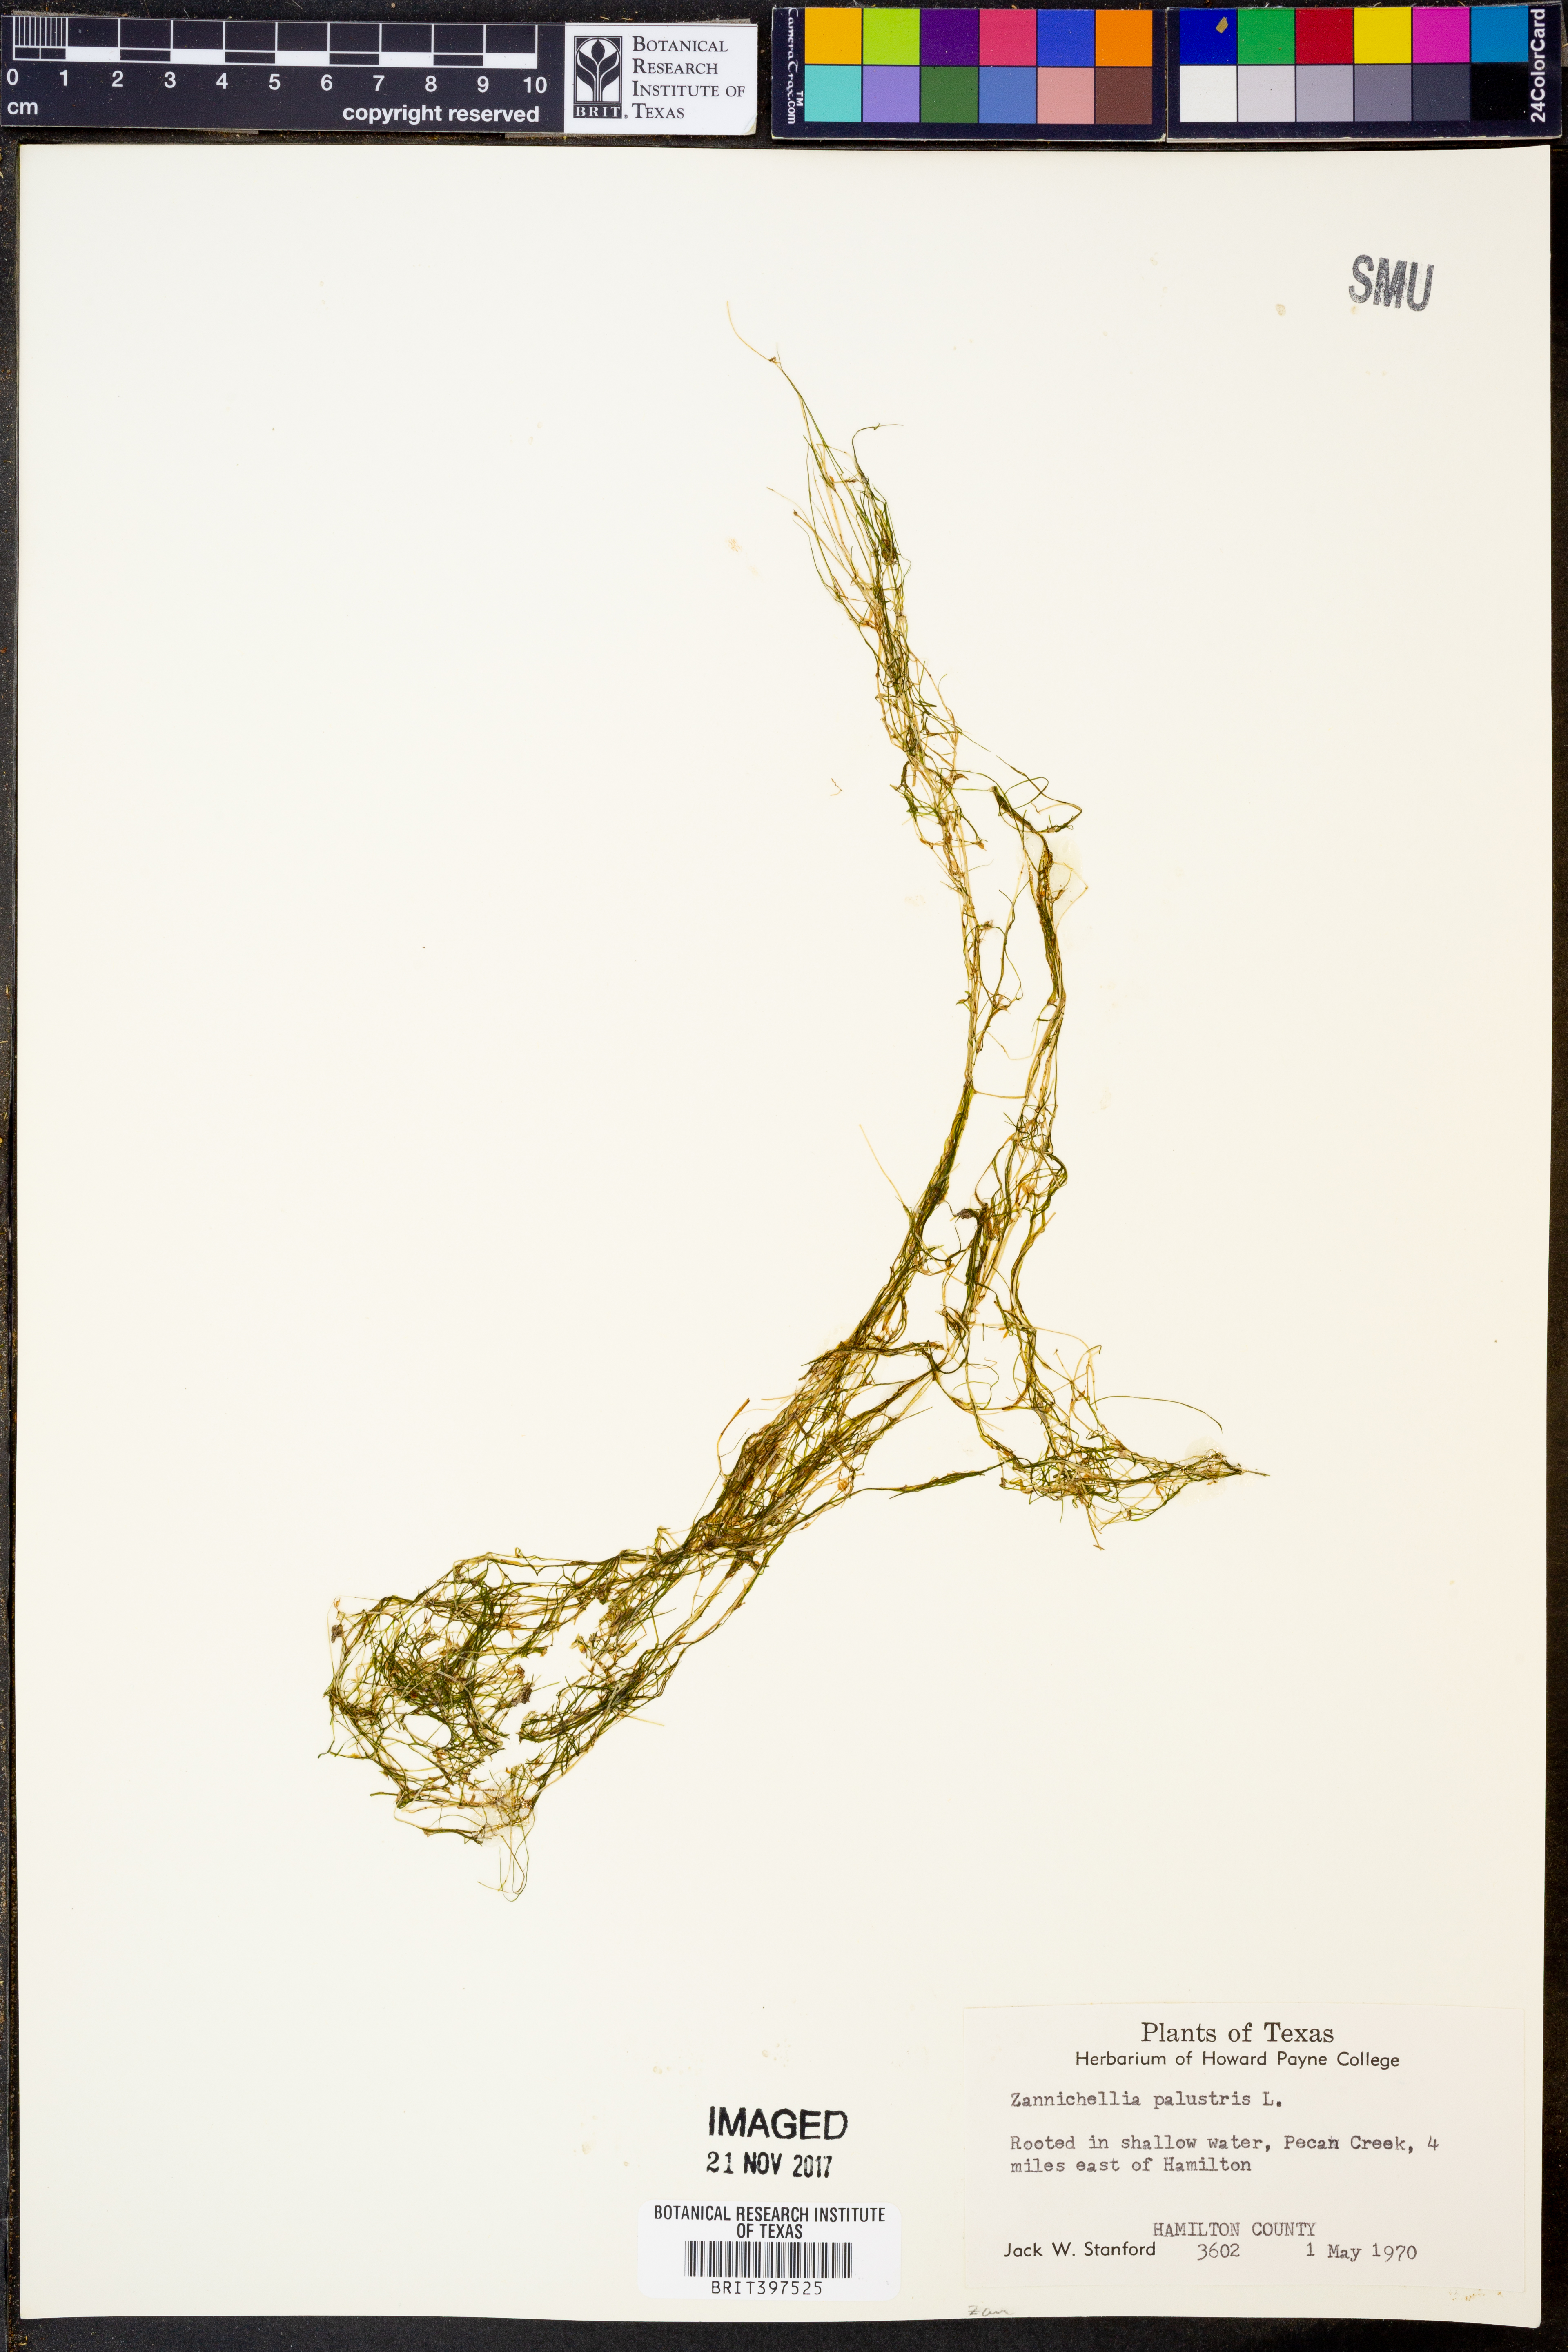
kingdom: Plantae
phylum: Tracheophyta
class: Liliopsida
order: Alismatales
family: Potamogetonaceae
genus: Zannichellia
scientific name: Zannichellia palustris
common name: Horned pondweed
